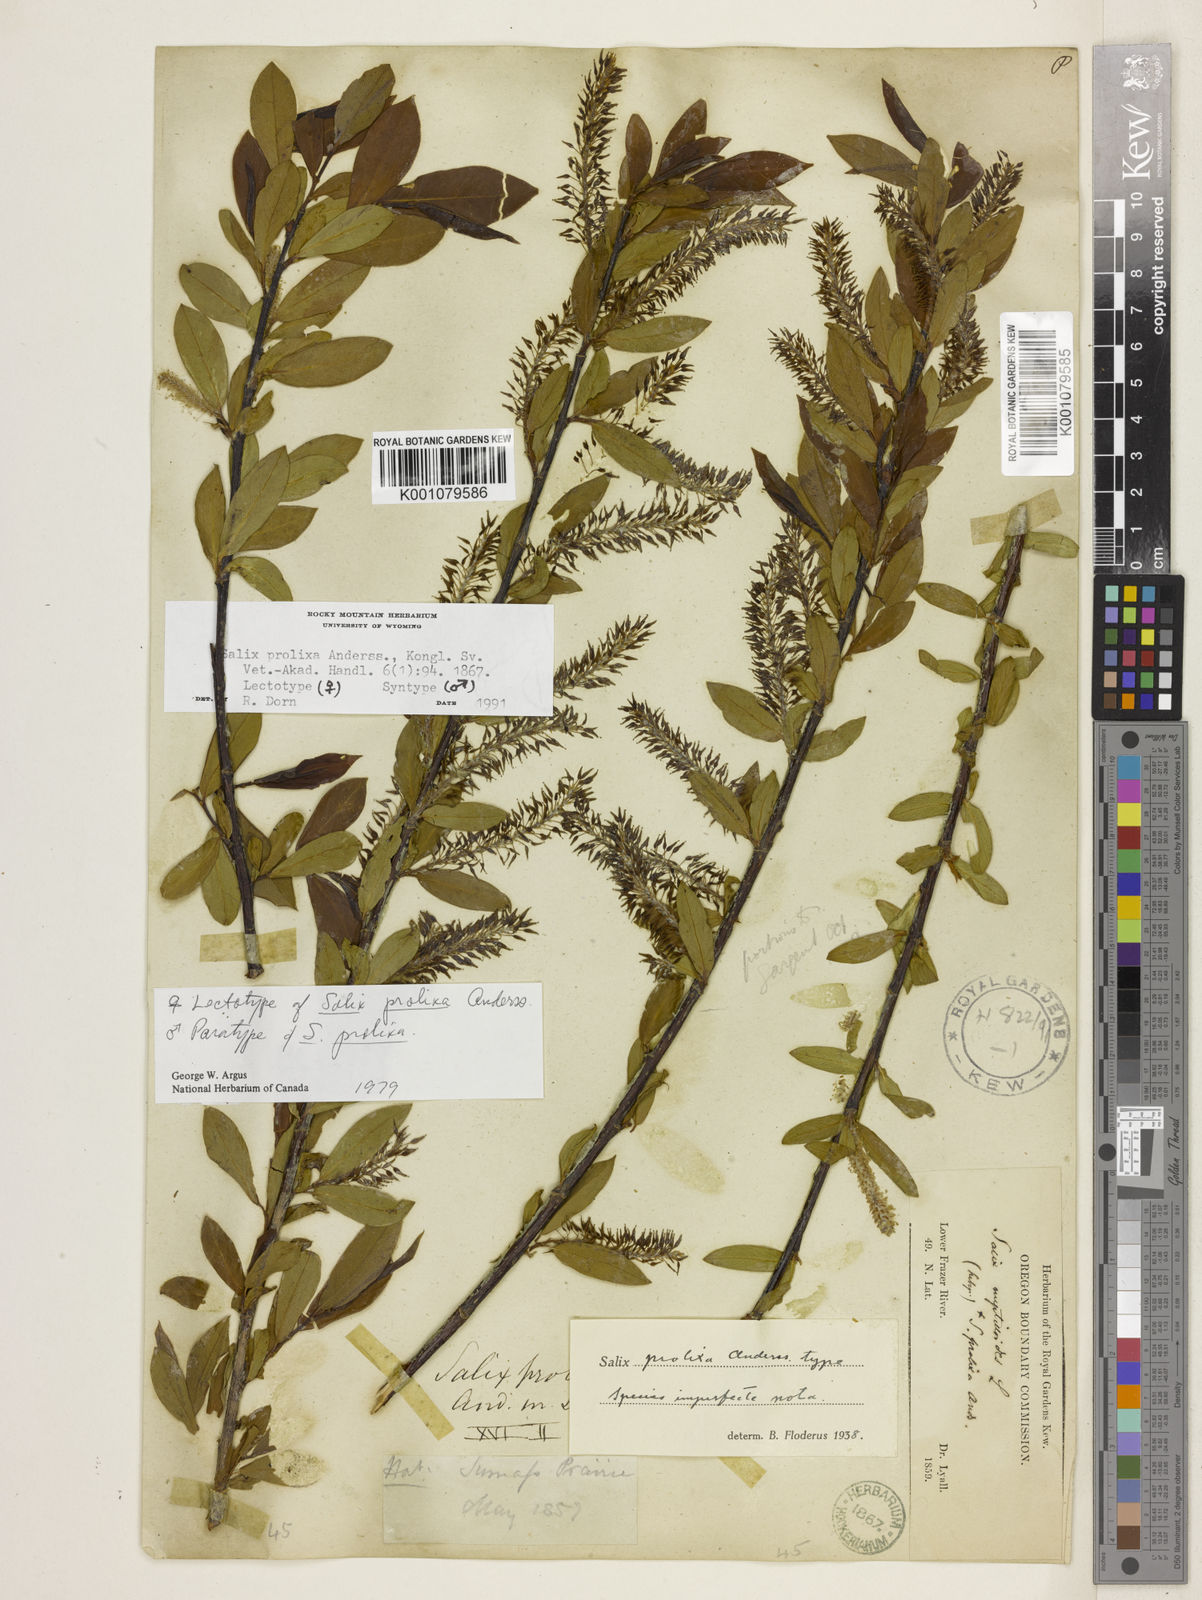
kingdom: Plantae
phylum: Tracheophyta
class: Magnoliopsida
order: Malpighiales
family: Salicaceae
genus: Salix
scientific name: Salix prolixa
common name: Mackenzie's willow
